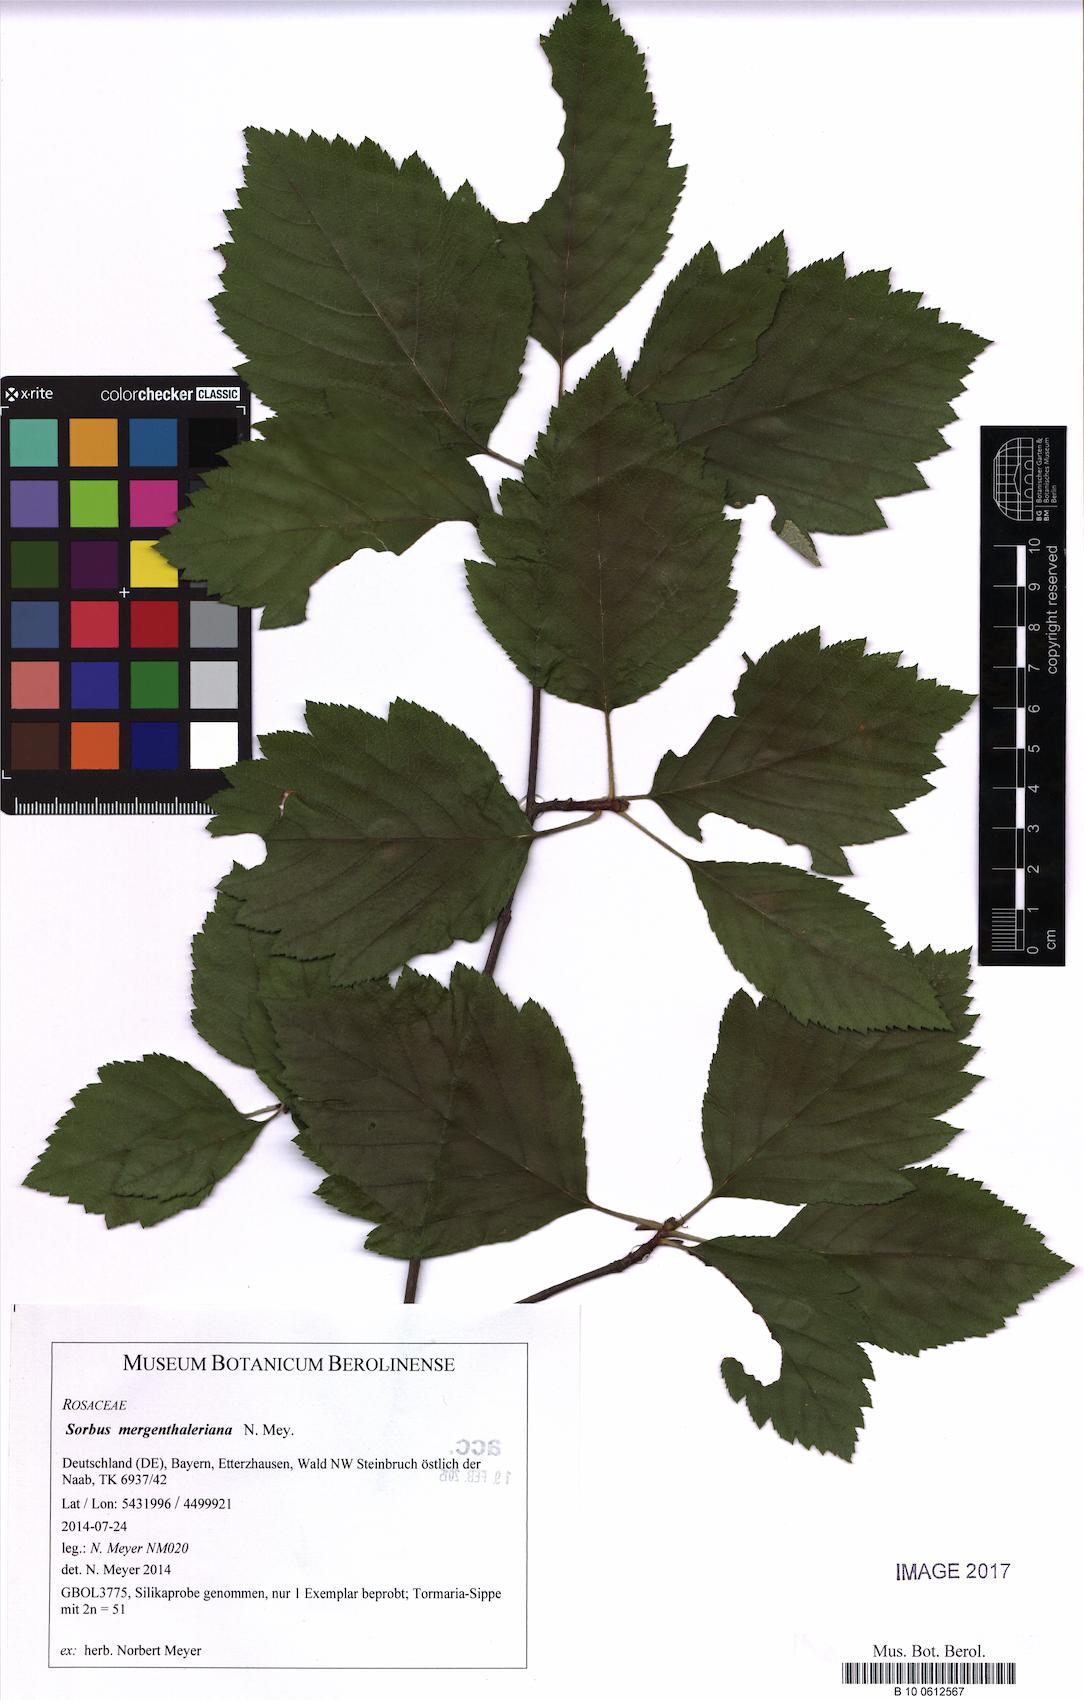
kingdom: Plantae
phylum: Tracheophyta
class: Magnoliopsida
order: Rosales
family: Rosaceae
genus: Karpatiosorbus
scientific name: Karpatiosorbus mergenthaleriana
